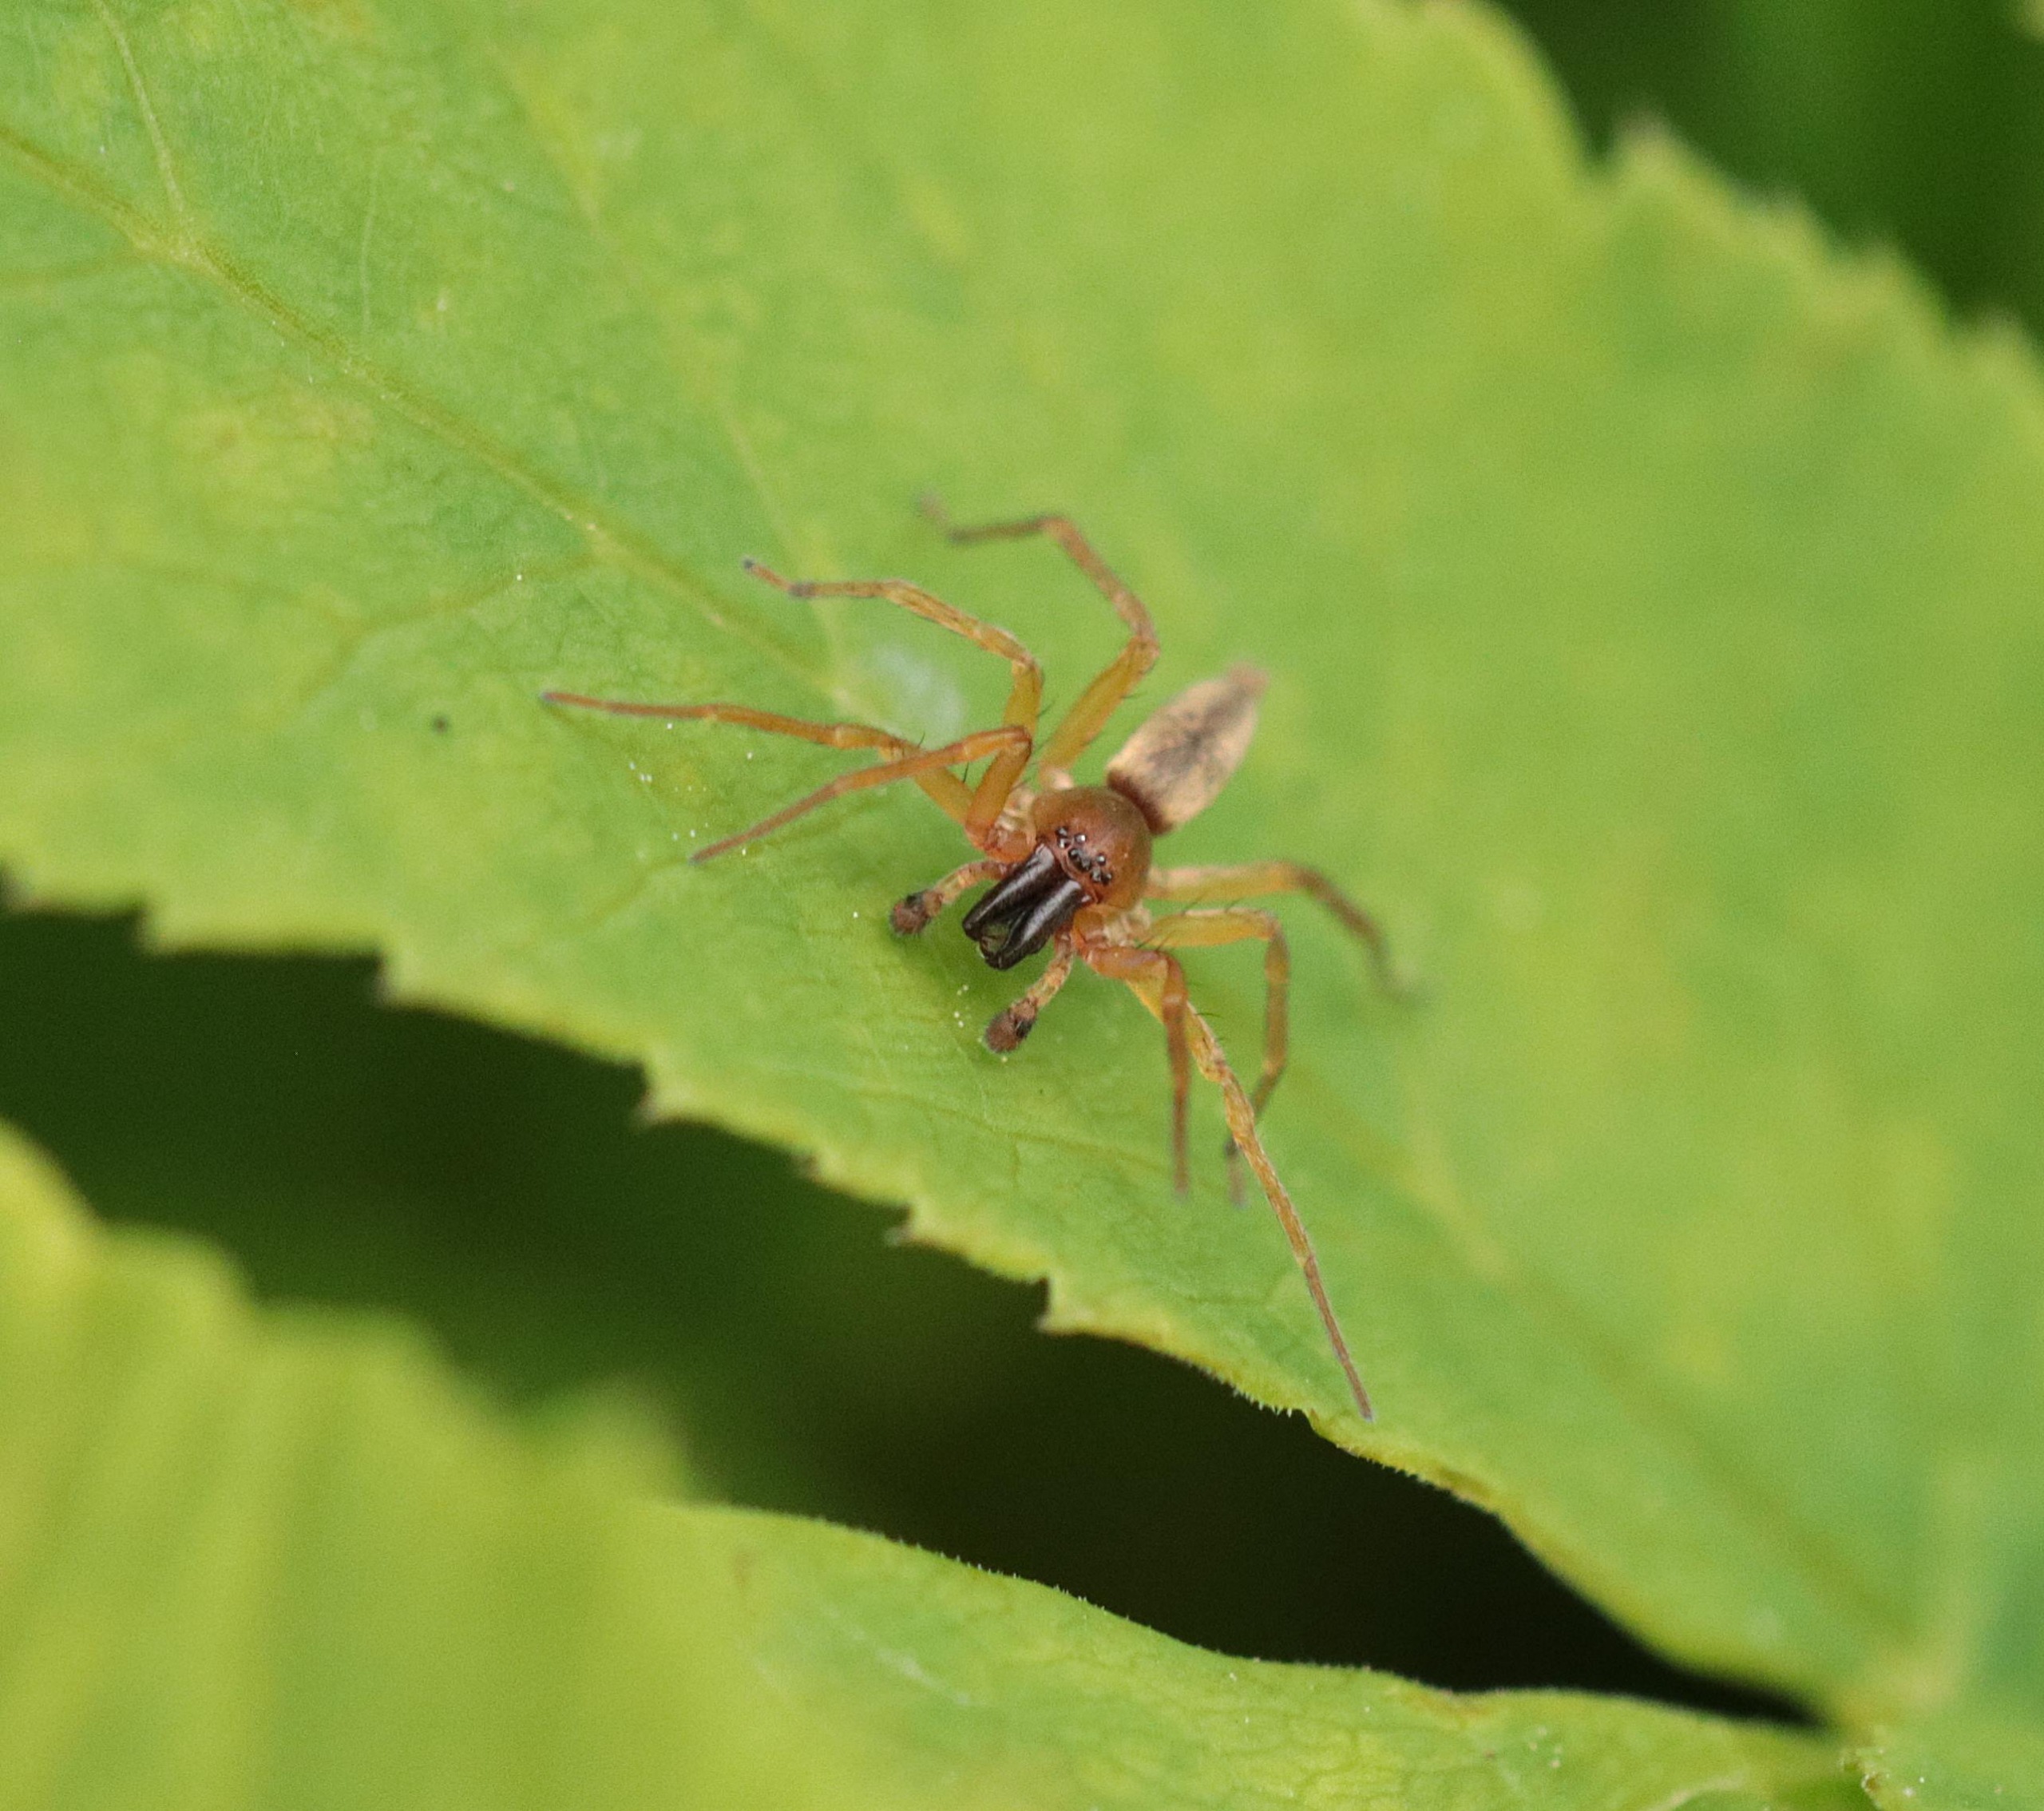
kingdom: Animalia
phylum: Arthropoda
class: Arachnida
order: Araneae
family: Clubionidae
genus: Clubiona
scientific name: Clubiona
